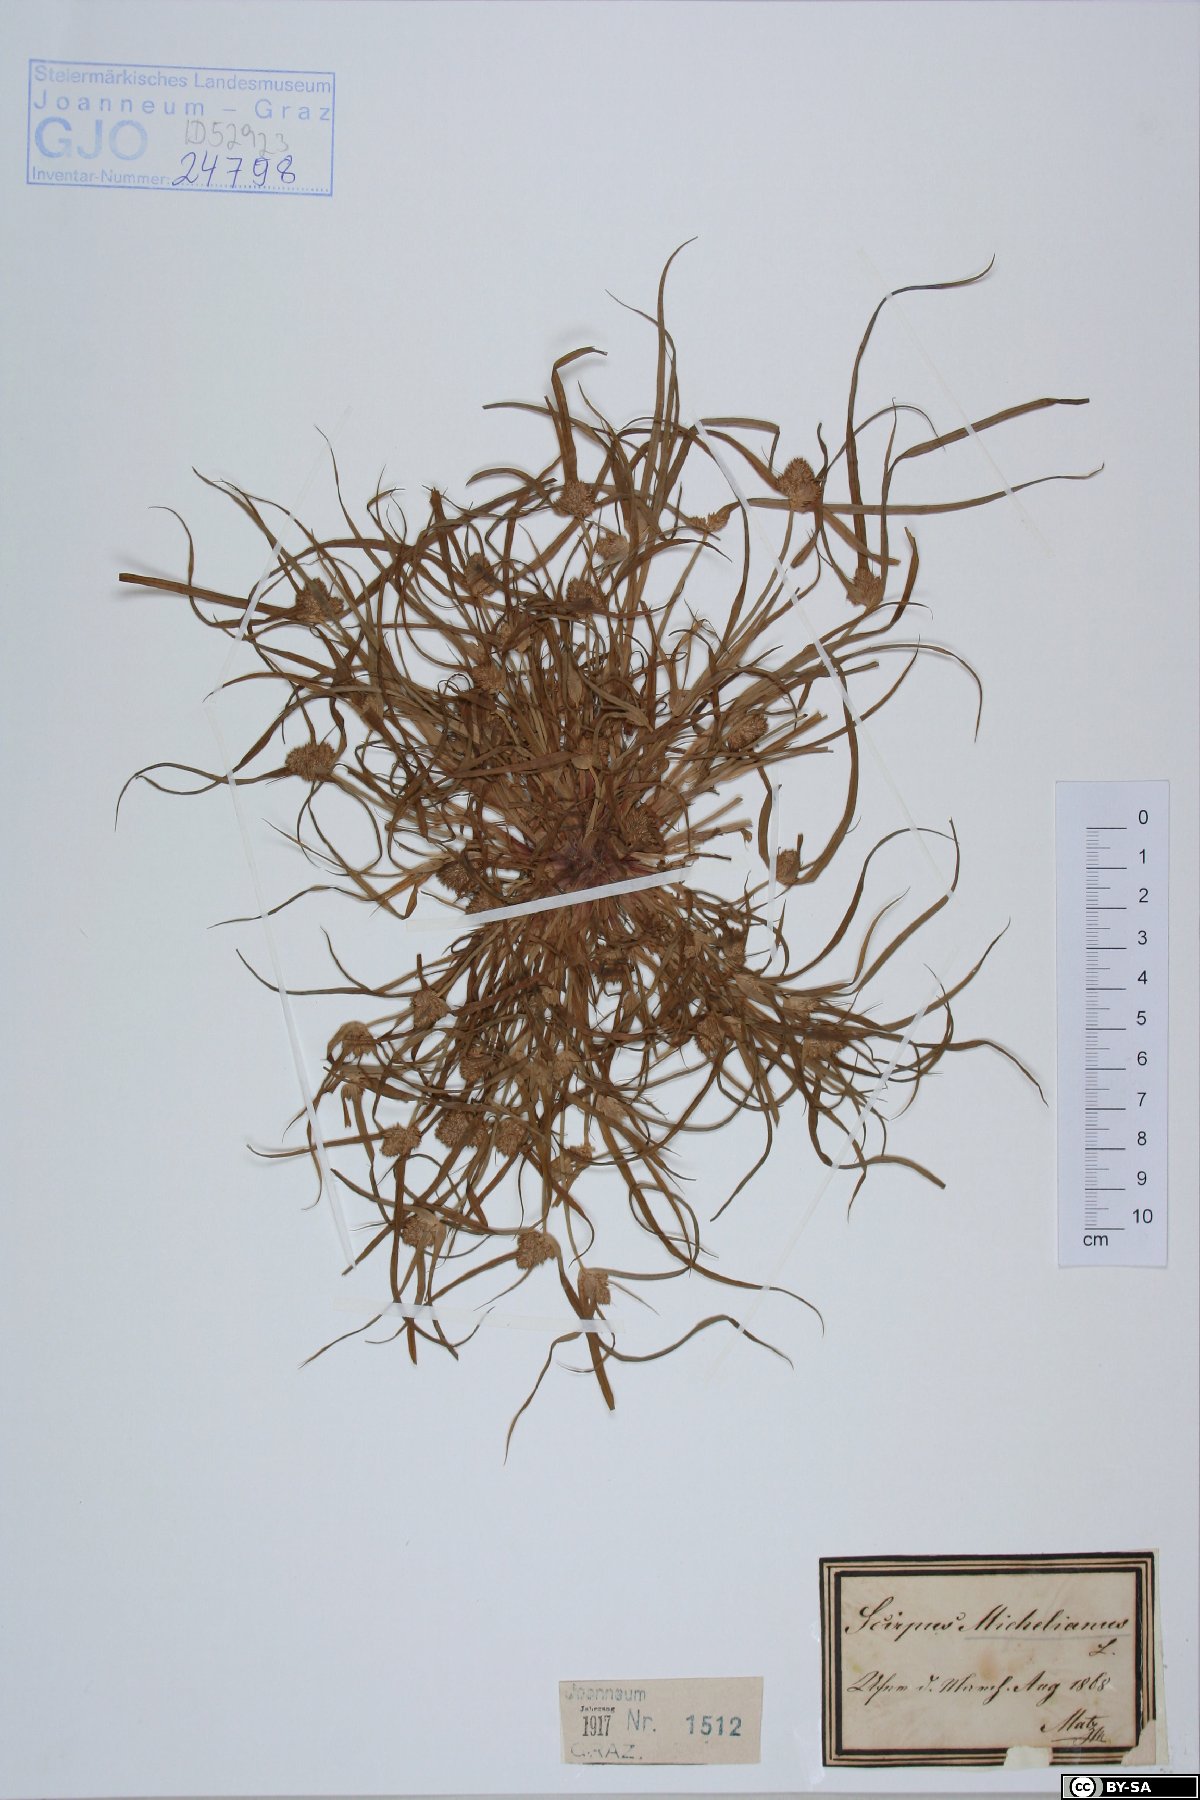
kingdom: Plantae
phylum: Tracheophyta
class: Liliopsida
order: Poales
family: Cyperaceae
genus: Cyperus
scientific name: Cyperus michelianus
